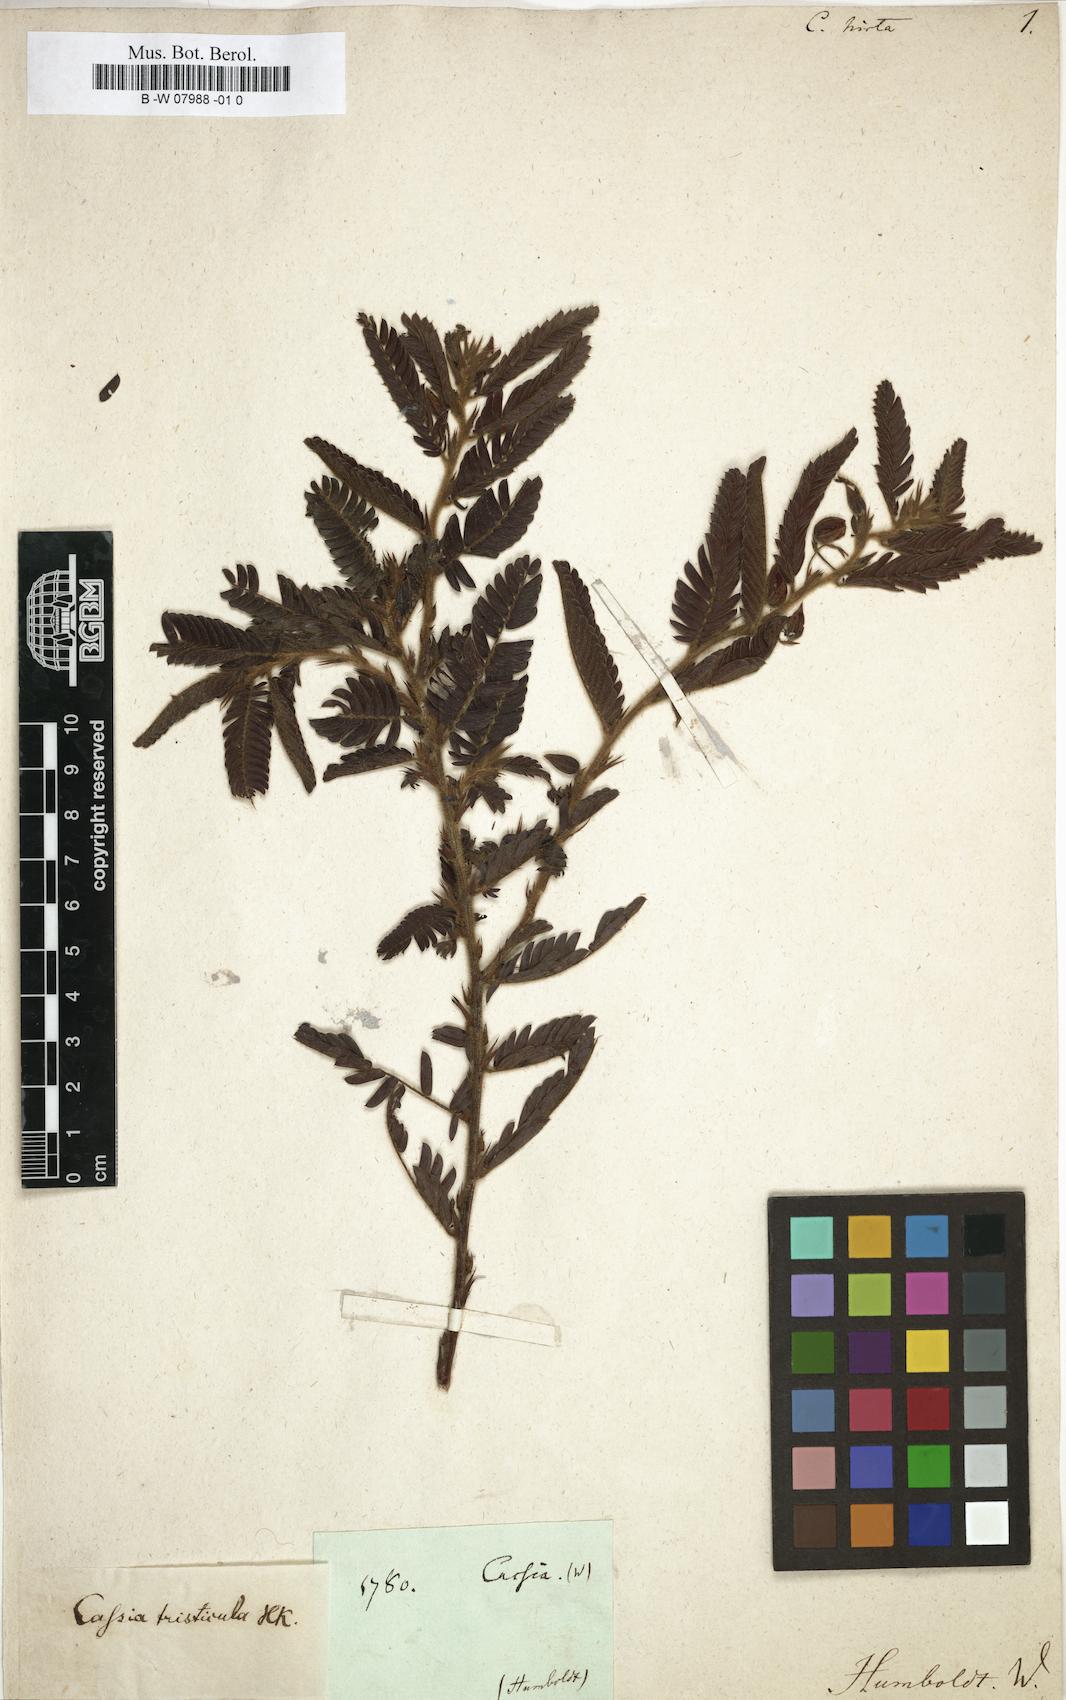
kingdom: Plantae
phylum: Tracheophyta
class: Magnoliopsida
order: Fabales
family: Fabaceae
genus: Chamaecrista
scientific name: Chamaecrista glandulosa
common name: Wild peas
